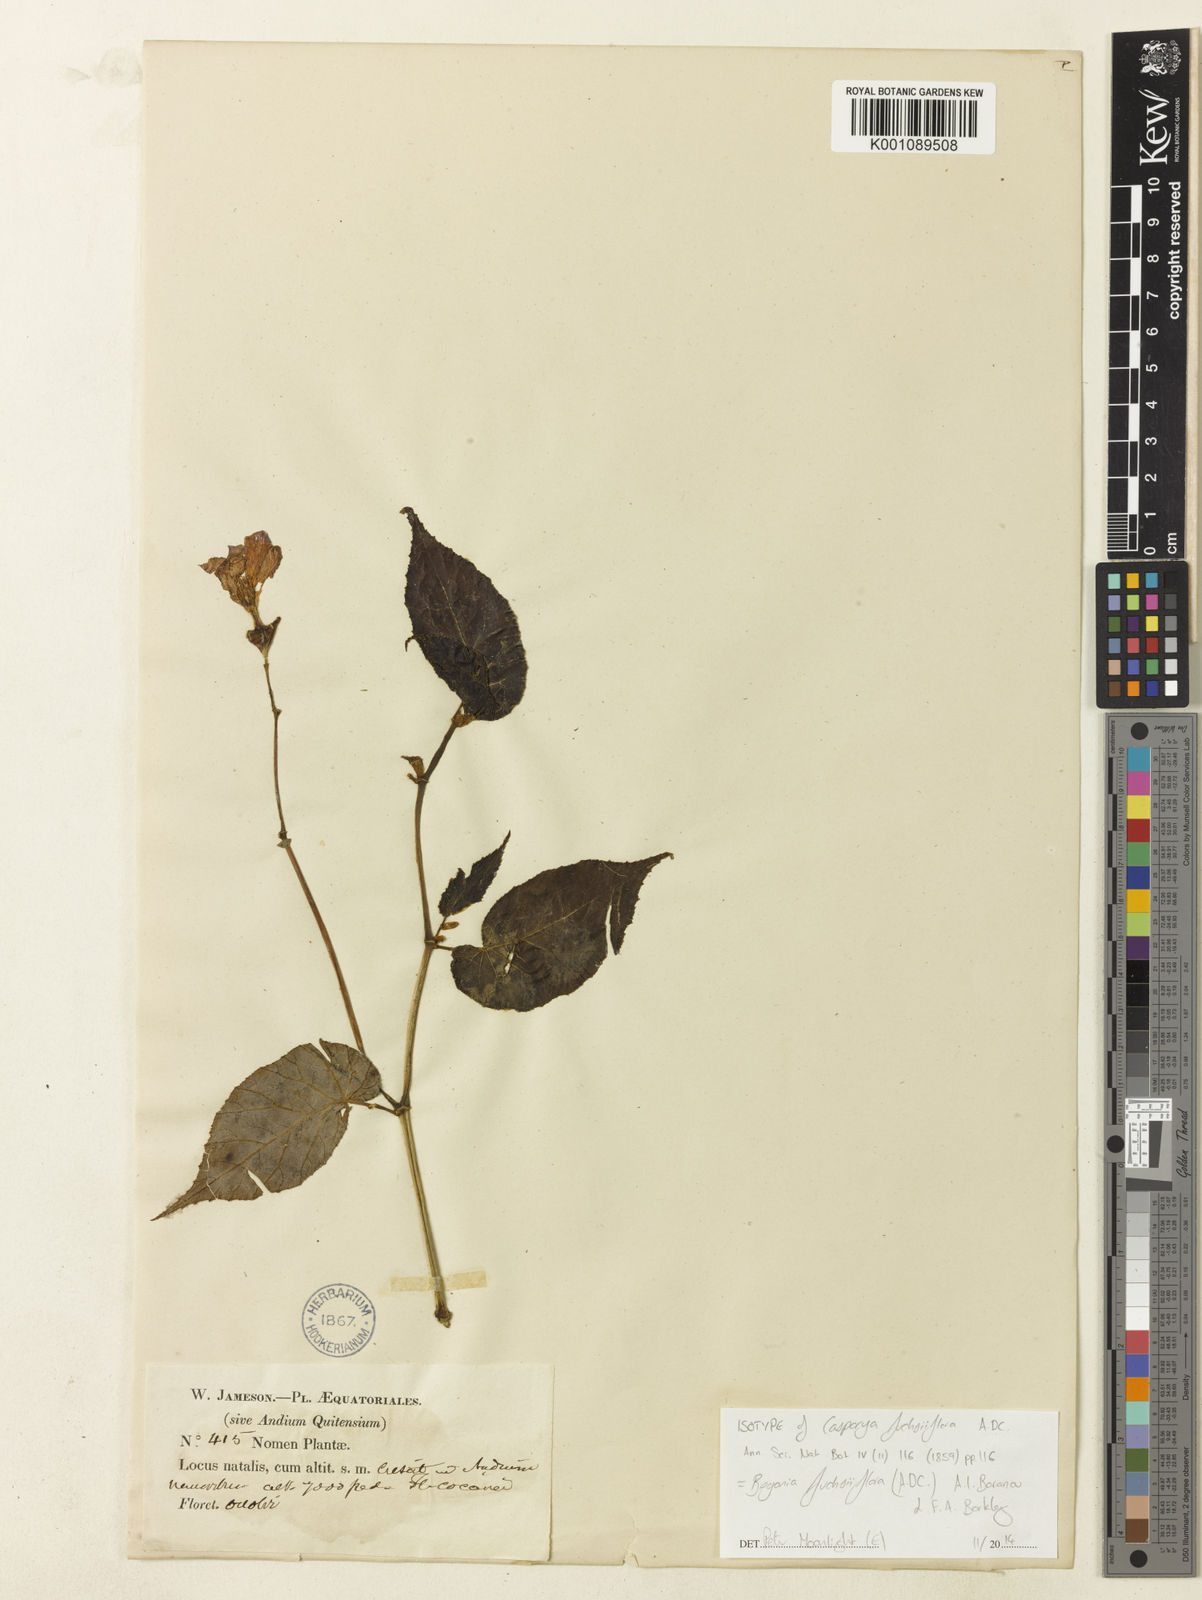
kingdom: Plantae
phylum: Tracheophyta
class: Magnoliopsida
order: Cucurbitales
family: Begoniaceae
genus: Begonia
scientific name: Begonia fuchsiiflora
